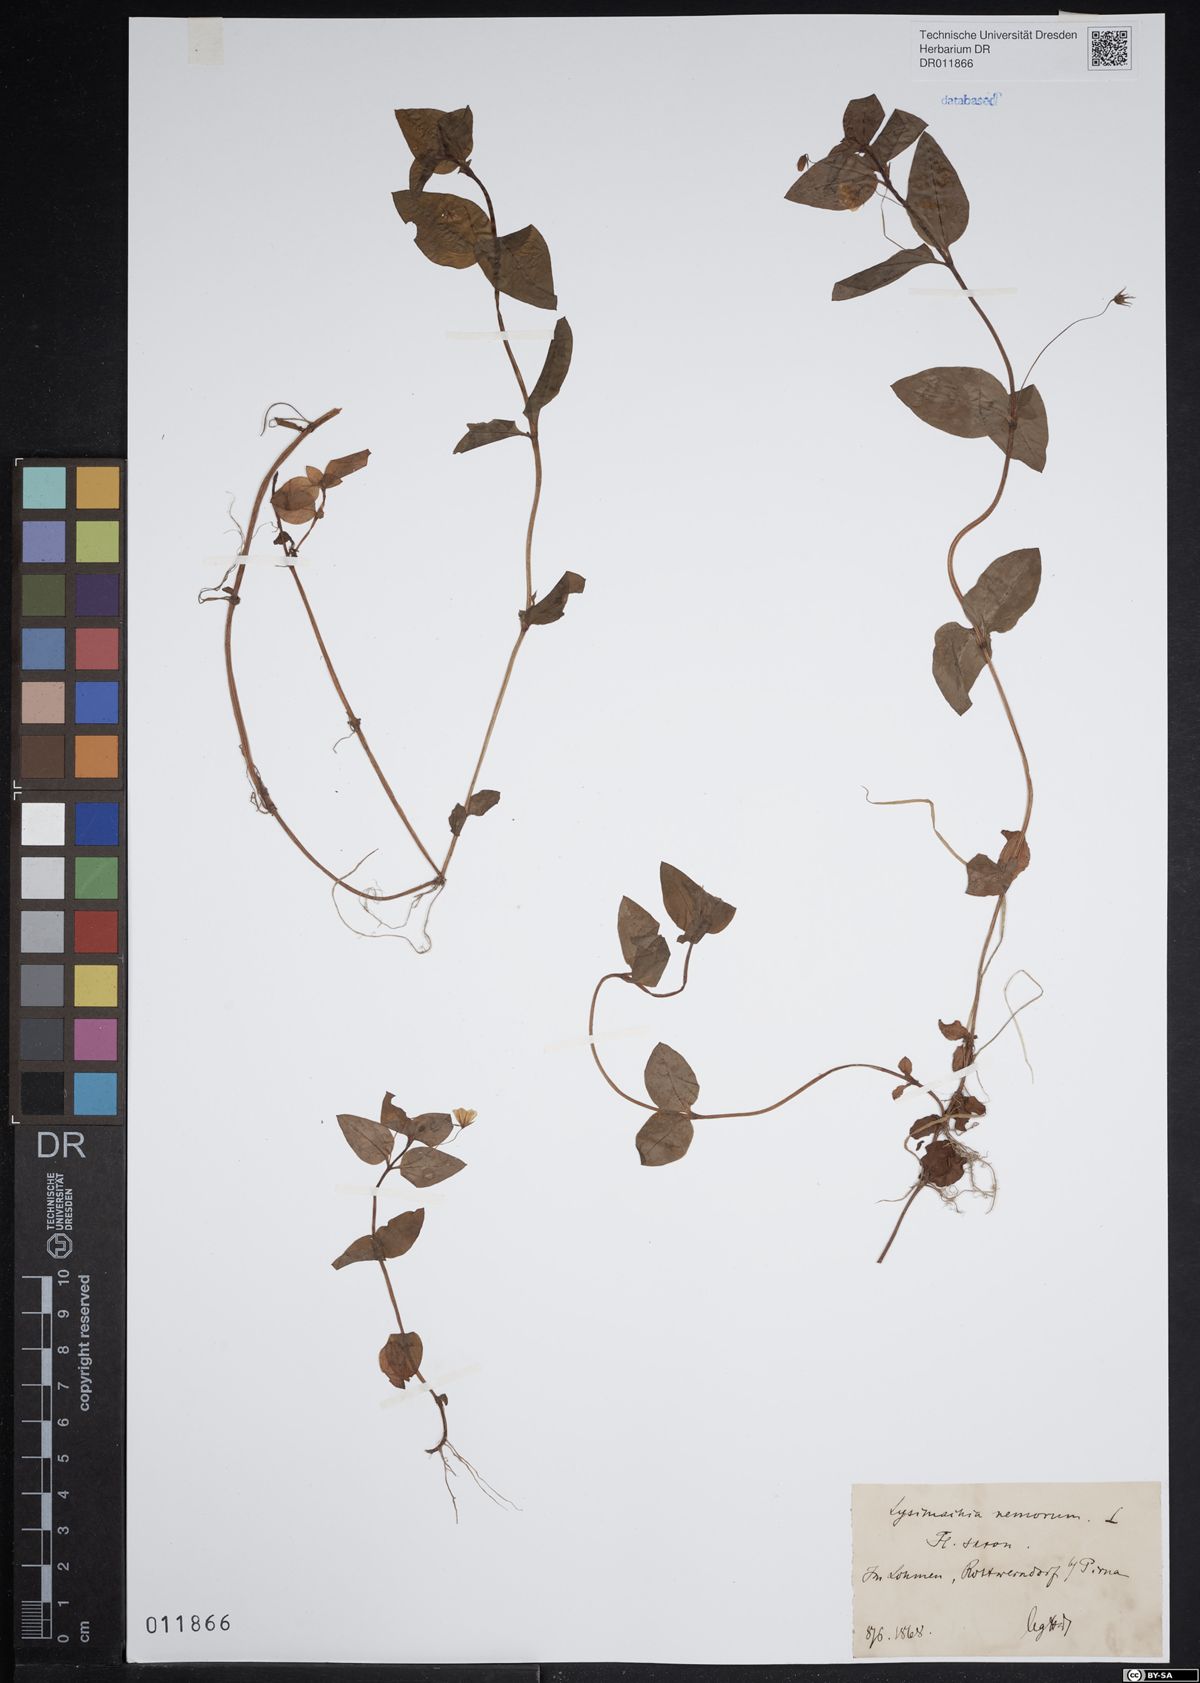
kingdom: Plantae
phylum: Tracheophyta
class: Magnoliopsida
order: Ericales
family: Primulaceae
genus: Lysimachia
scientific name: Lysimachia nemorum
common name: Yellow pimpernel
